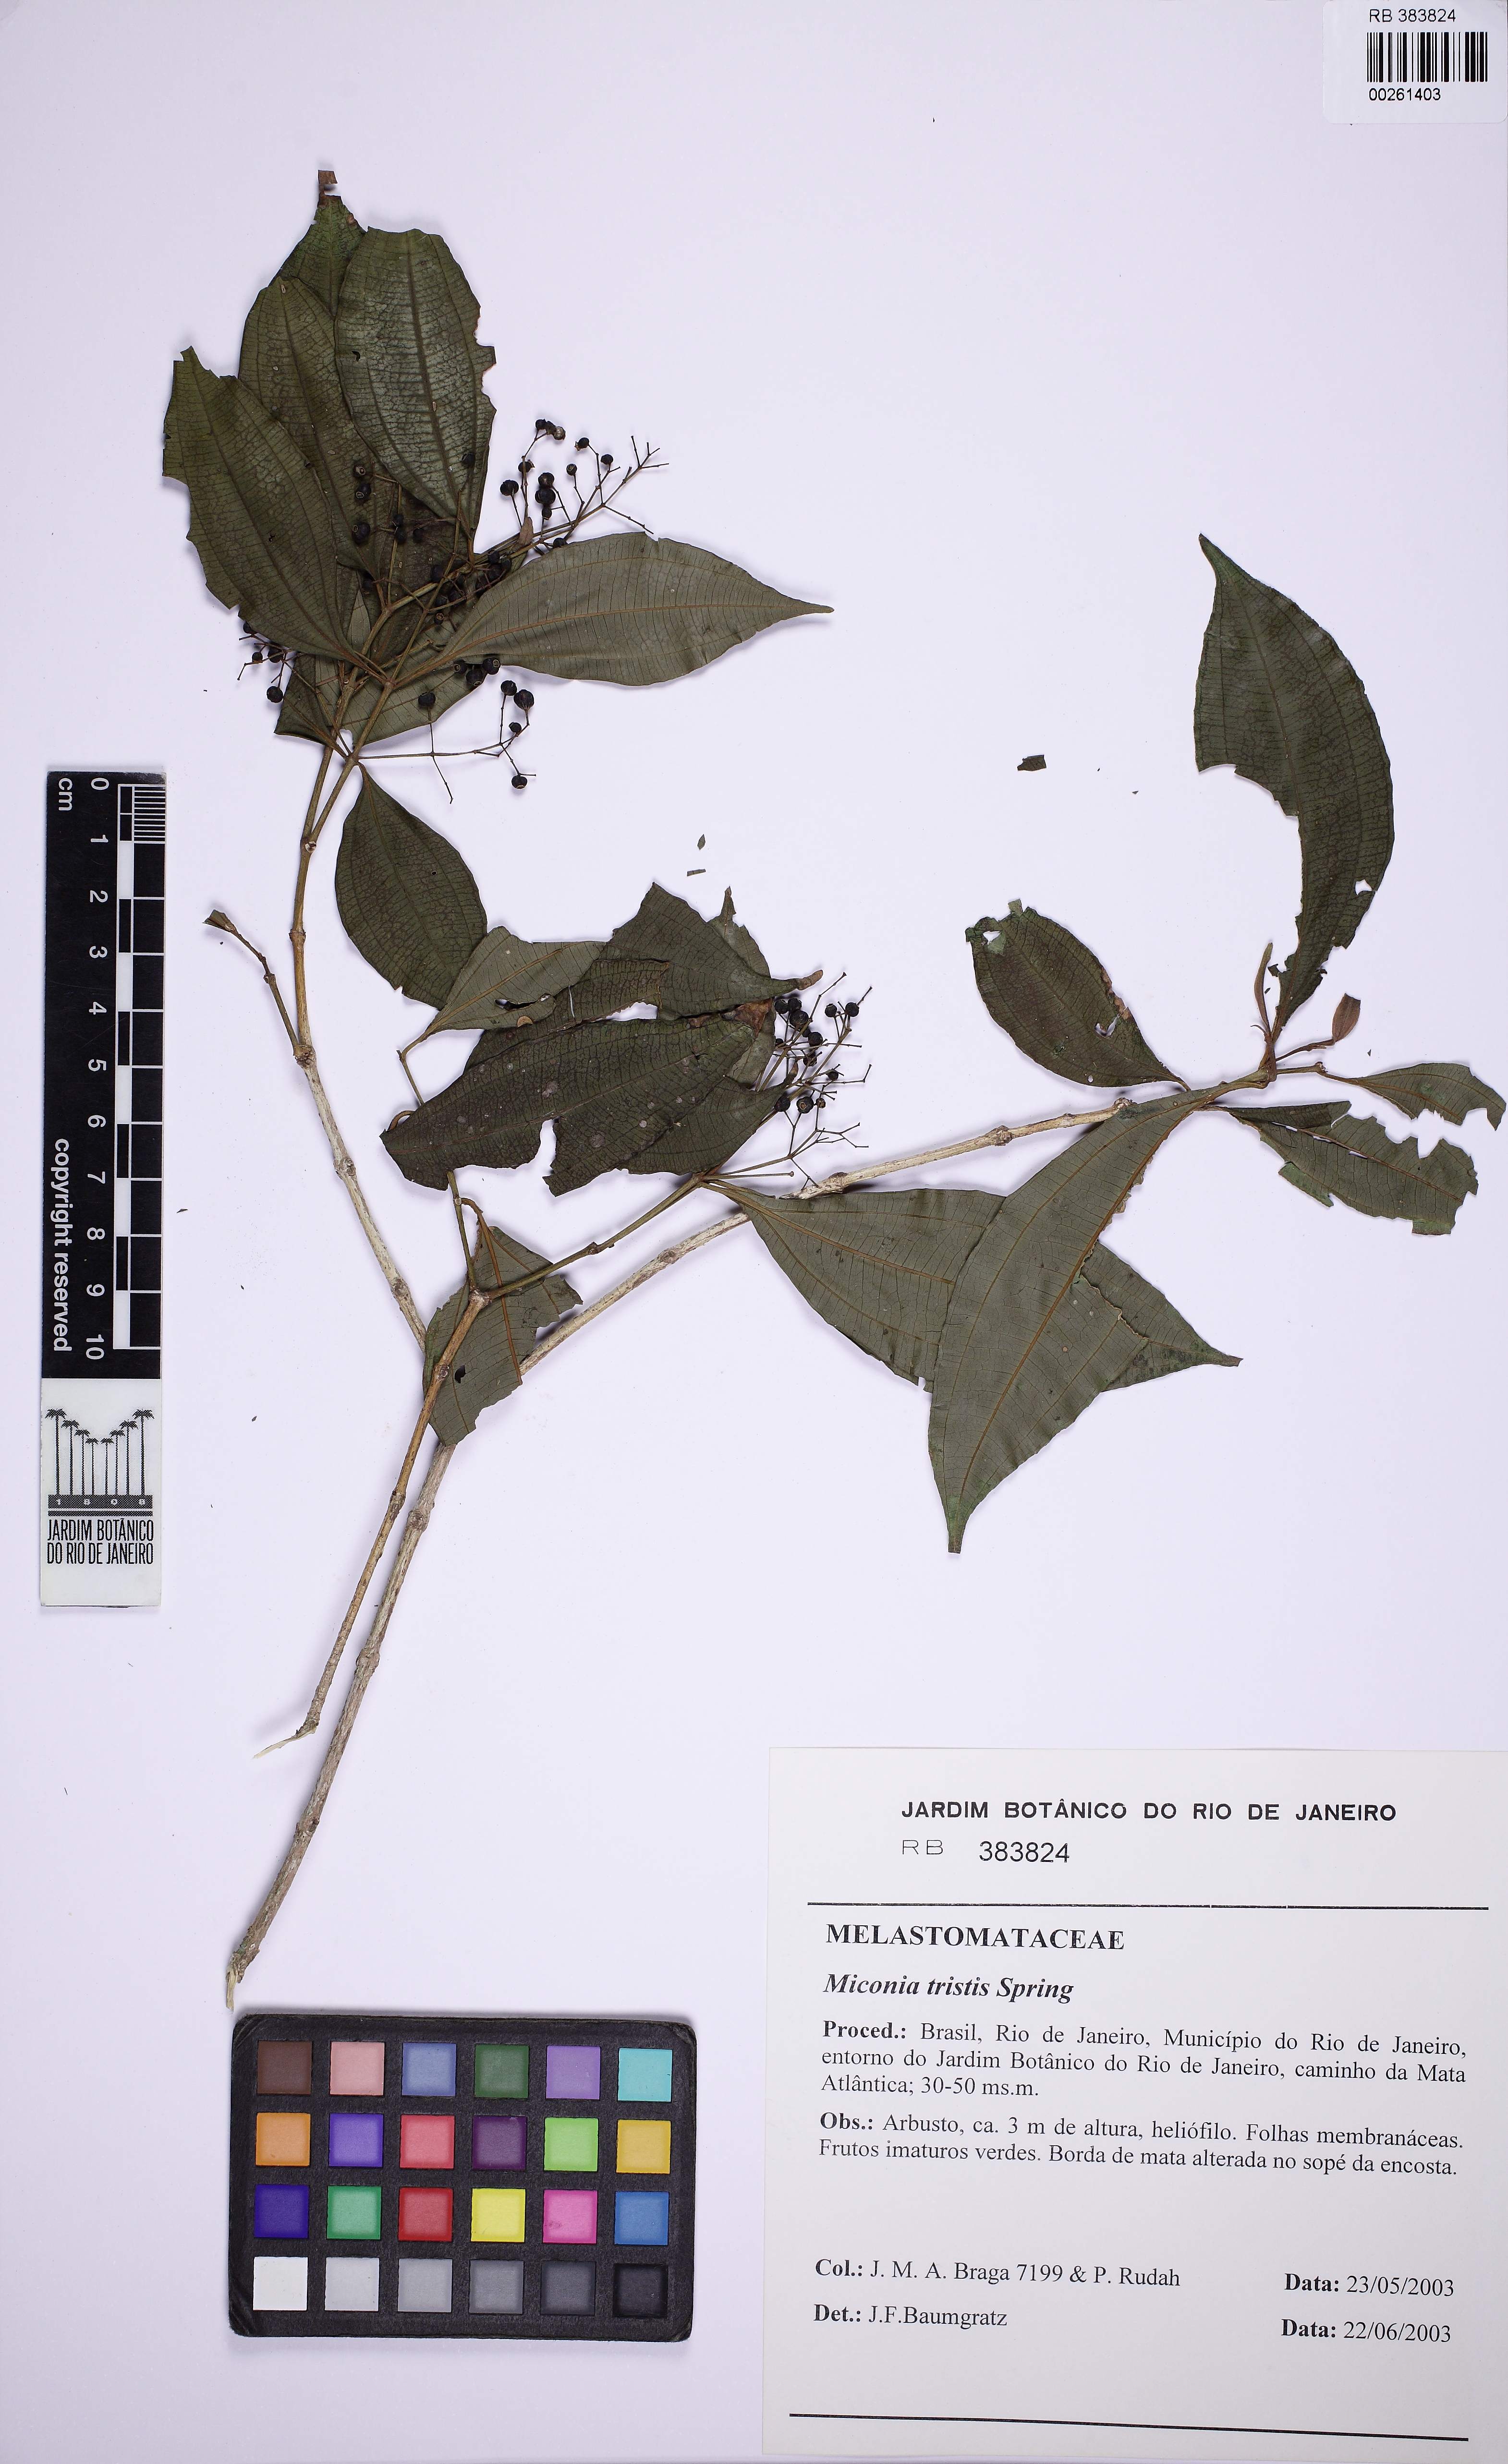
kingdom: Plantae
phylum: Tracheophyta
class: Magnoliopsida
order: Myrtales
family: Melastomataceae
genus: Miconia
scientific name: Miconia tristis
